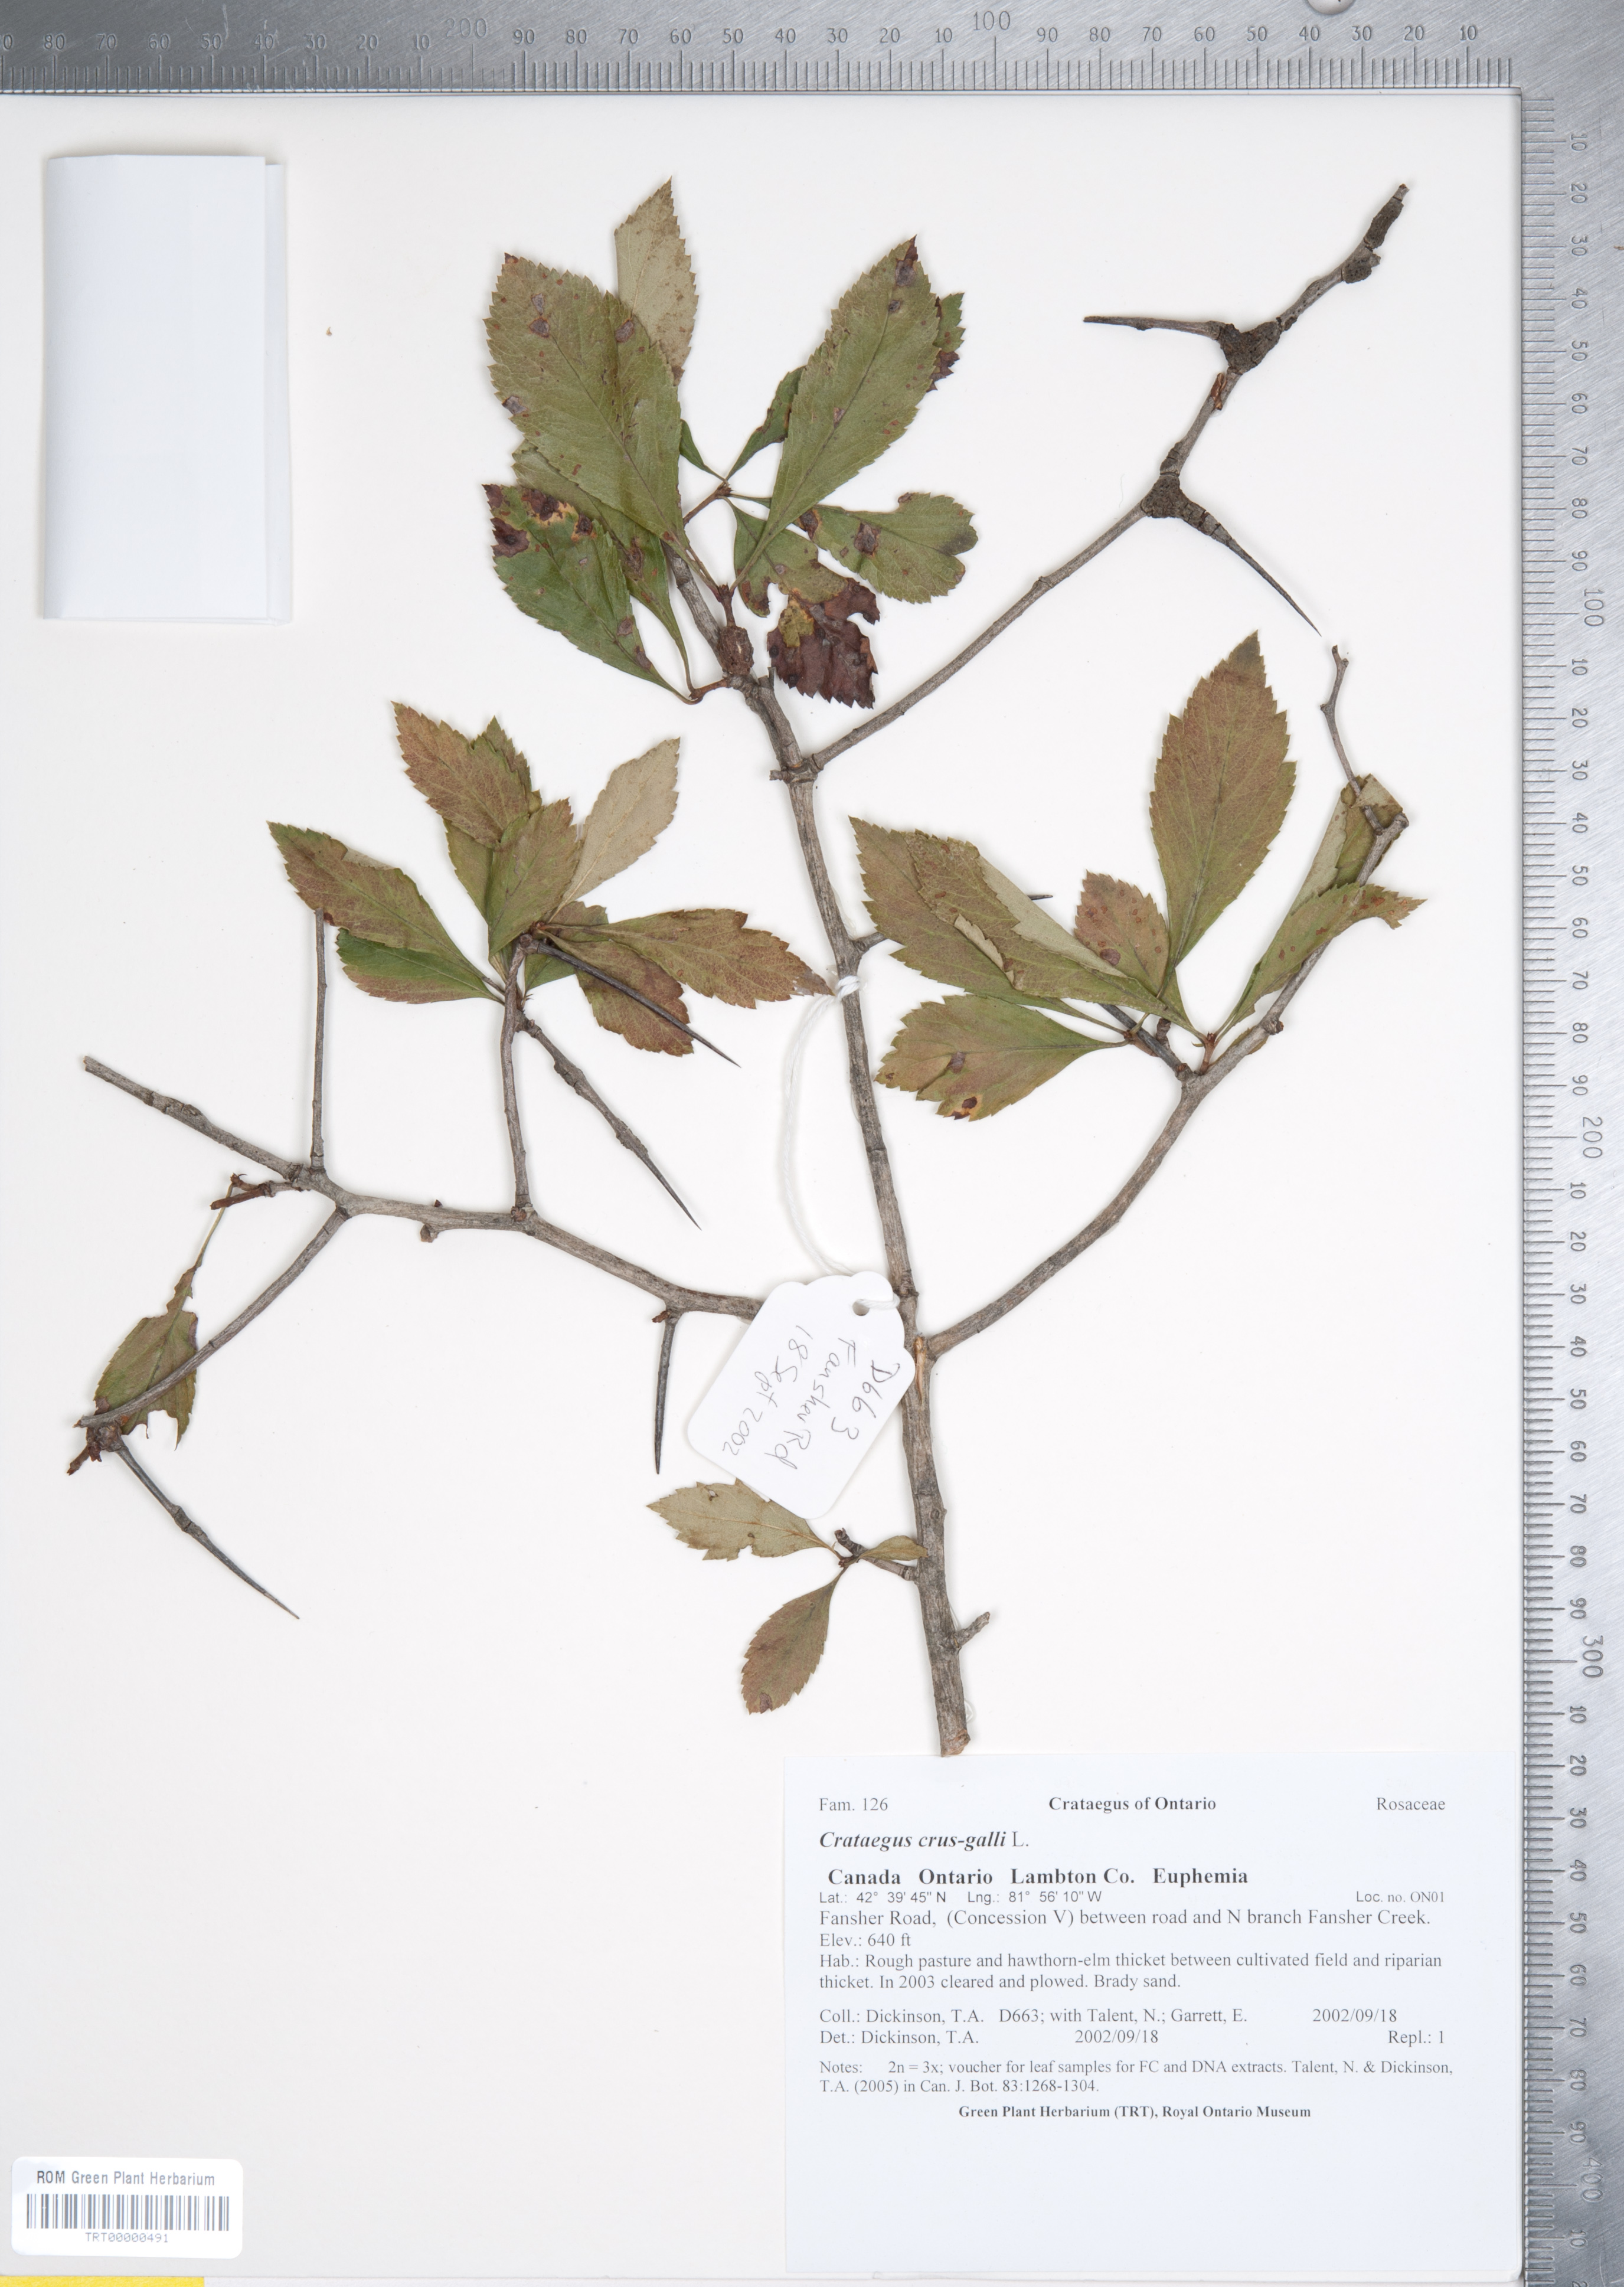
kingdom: Plantae
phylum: Tracheophyta
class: Magnoliopsida
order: Rosales
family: Rosaceae
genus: Crataegus
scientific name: Crataegus crus-galli
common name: Cockspurthorn
